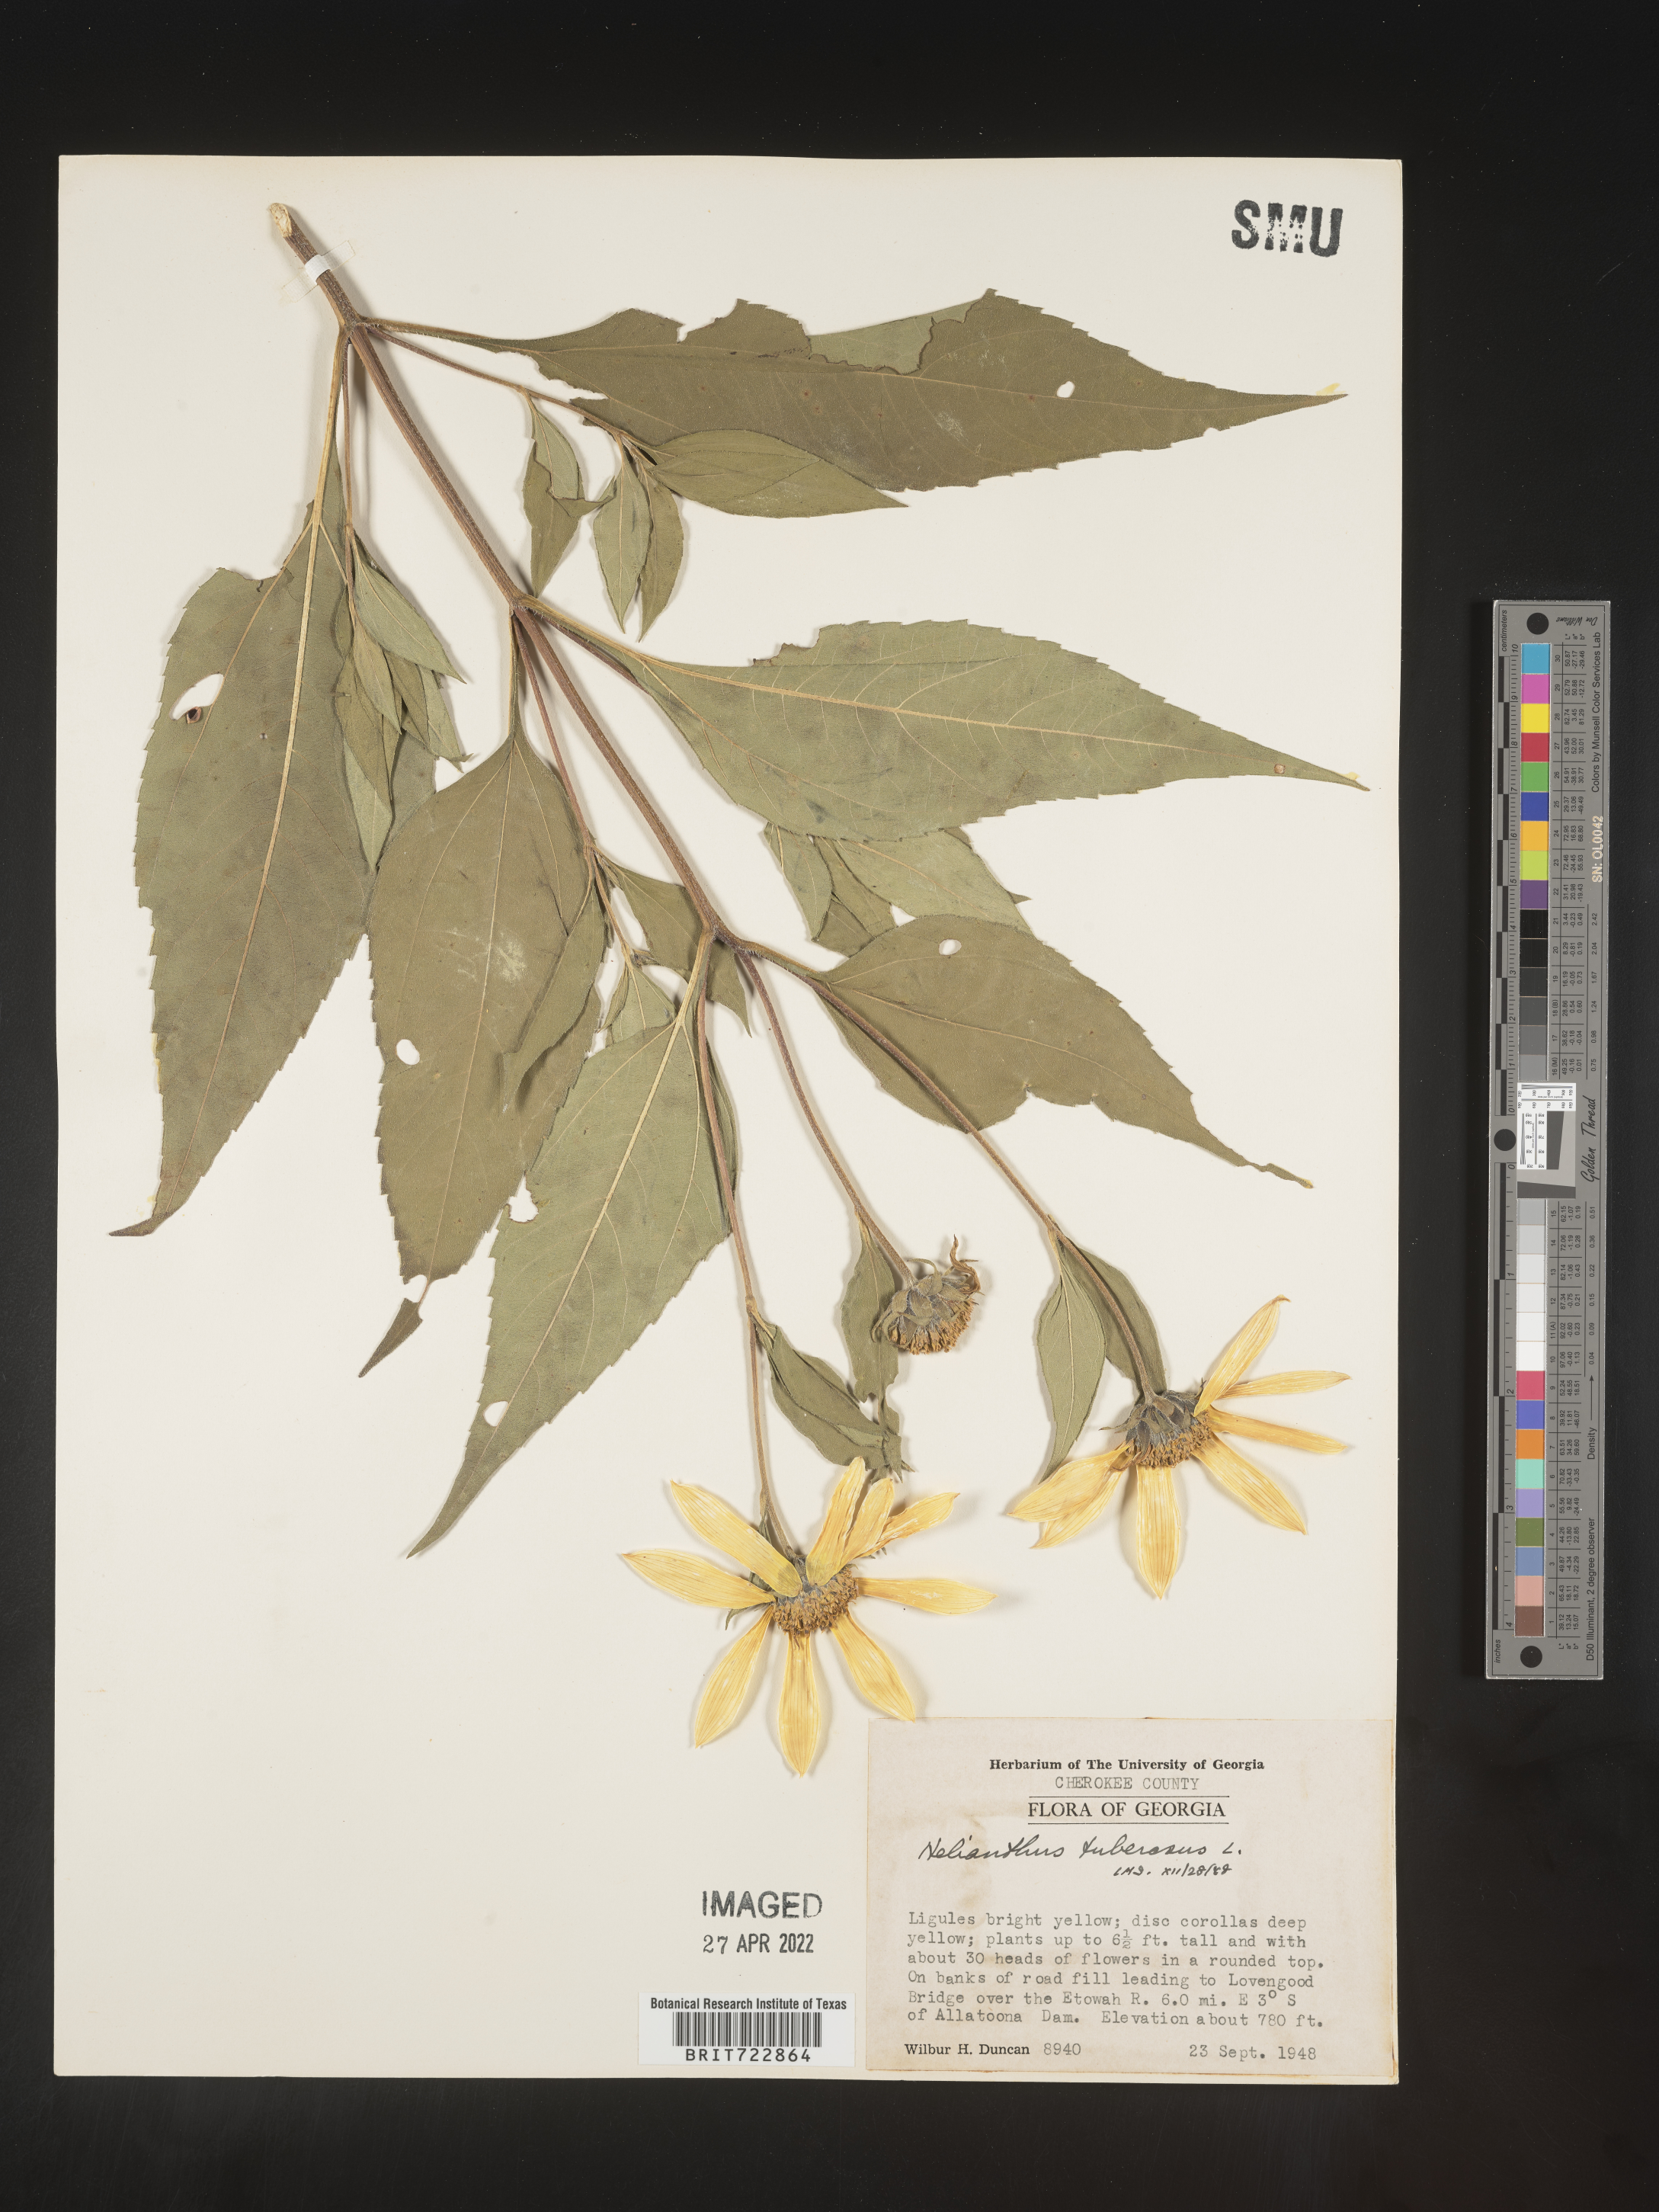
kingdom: Plantae
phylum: Tracheophyta
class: Magnoliopsida
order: Asterales
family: Asteraceae
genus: Helianthus
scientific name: Helianthus tuberosus
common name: Jerusalem artichoke
